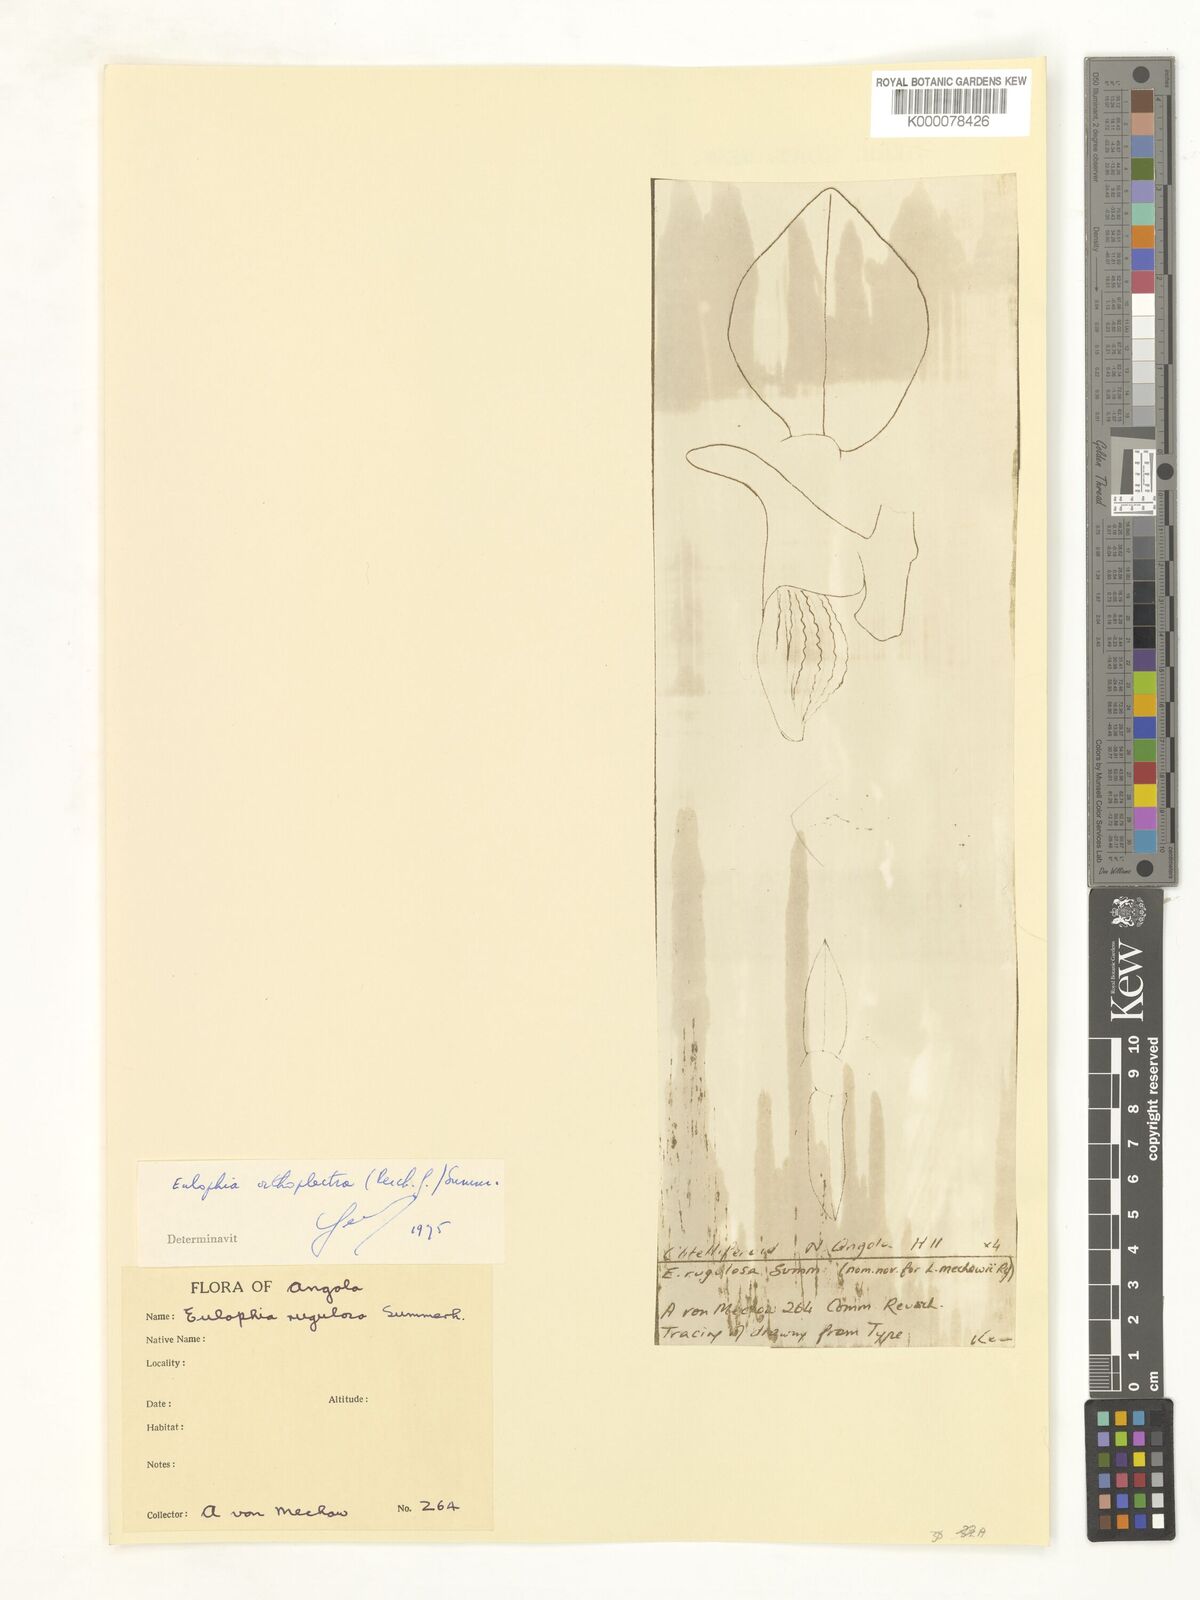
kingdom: Plantae
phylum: Tracheophyta
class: Liliopsida
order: Asparagales
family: Orchidaceae
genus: Eulophia
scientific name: Eulophia orthoplectra
